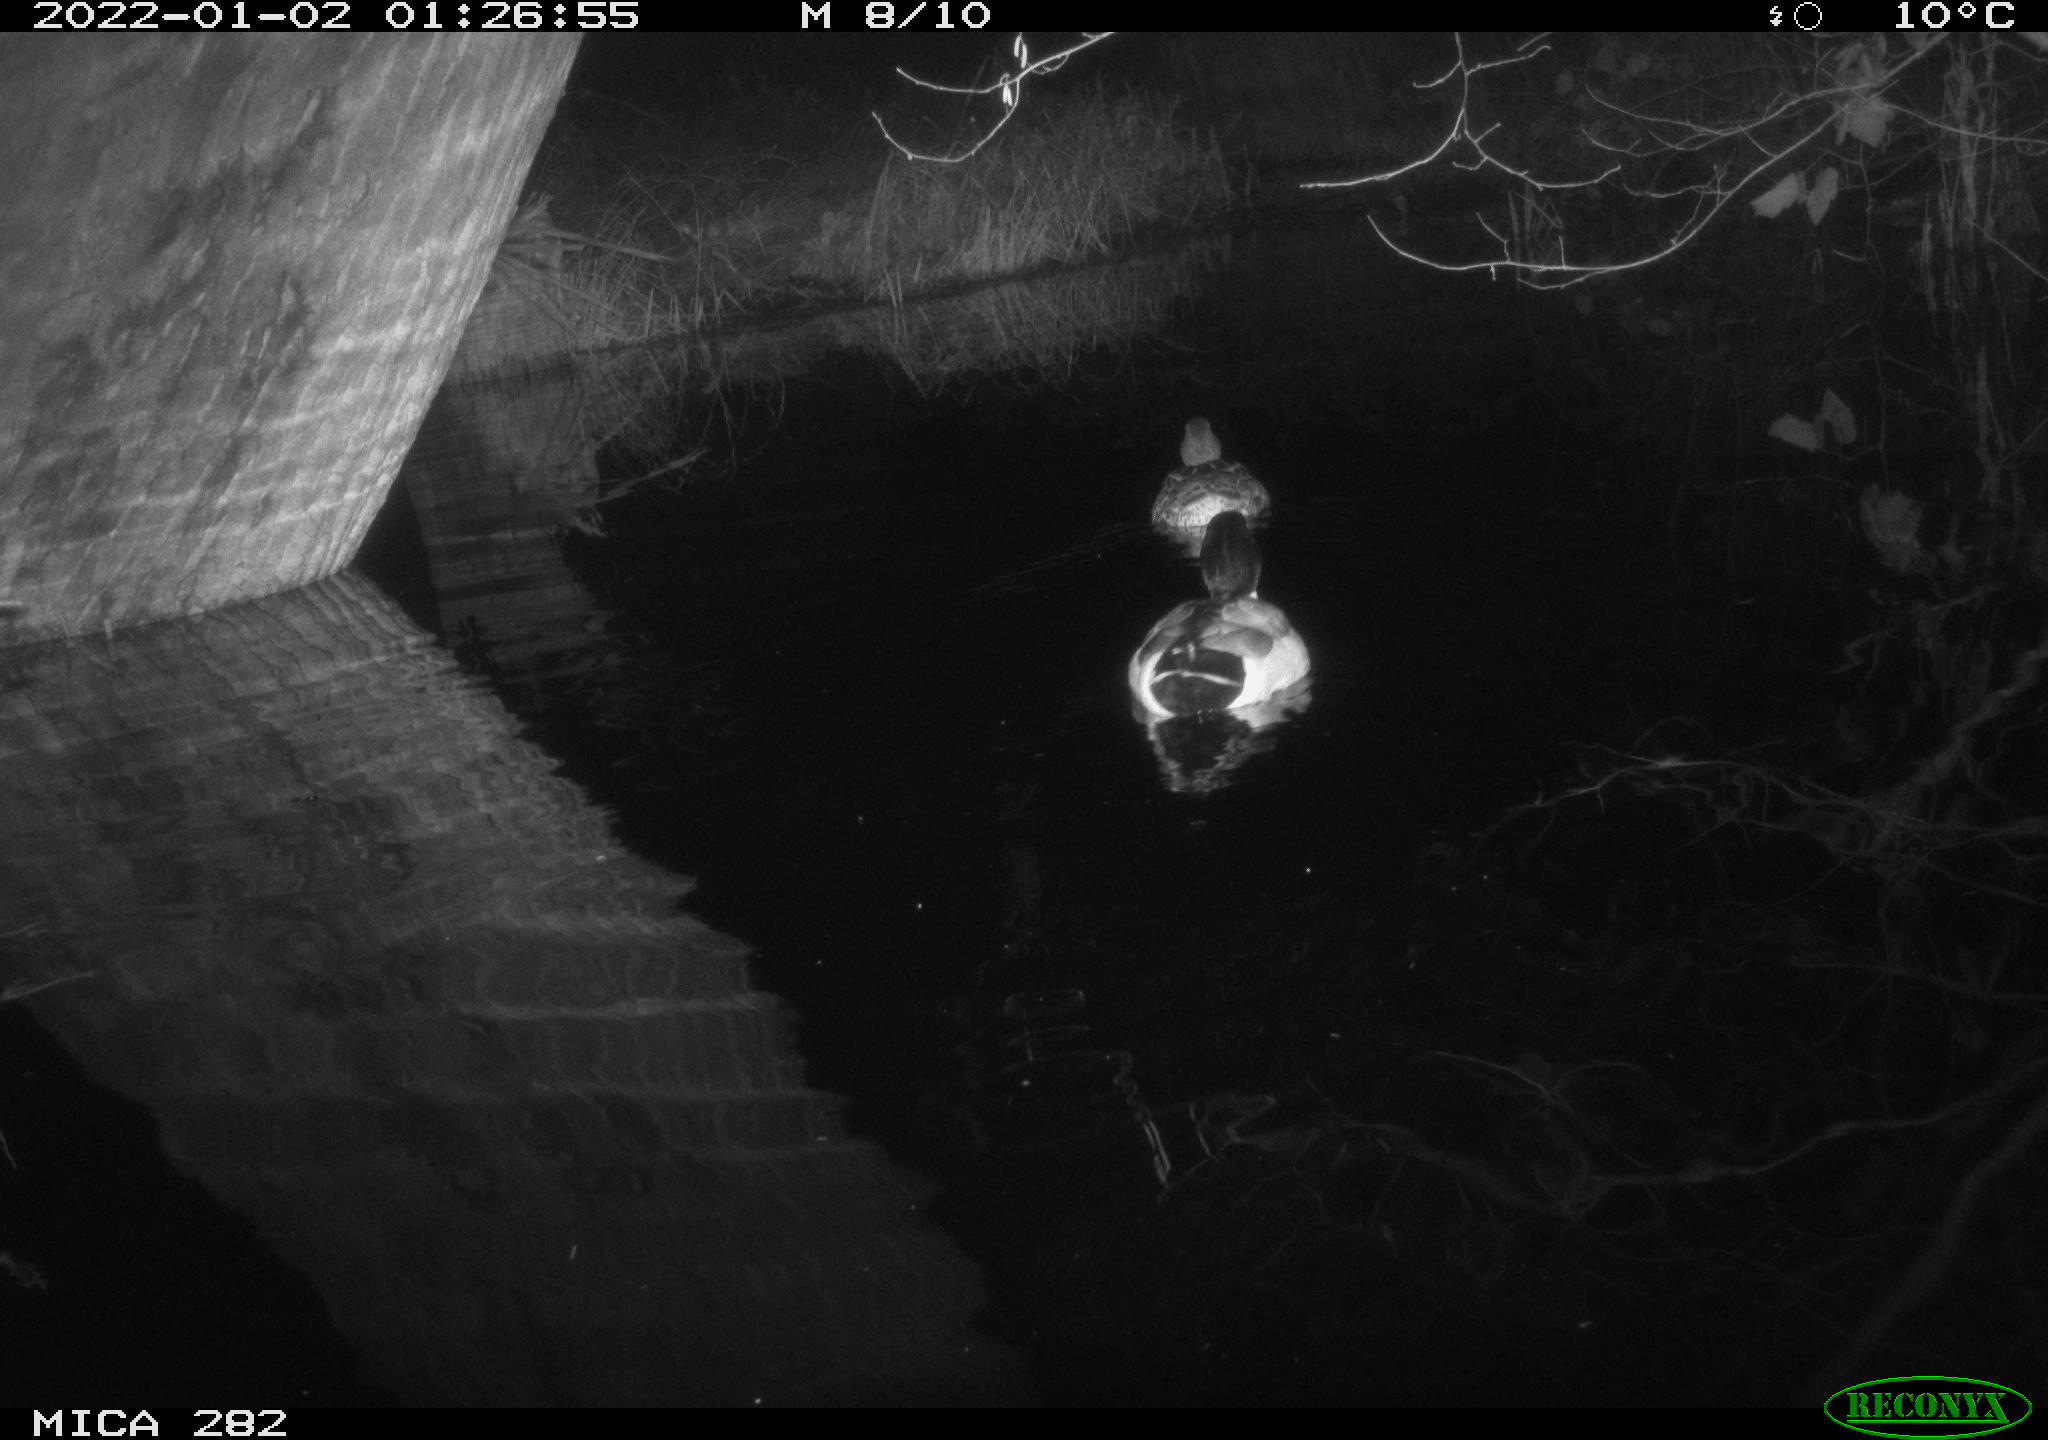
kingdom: Animalia
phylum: Chordata
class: Aves
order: Anseriformes
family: Anatidae
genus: Anas
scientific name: Anas platyrhynchos
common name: Mallard
